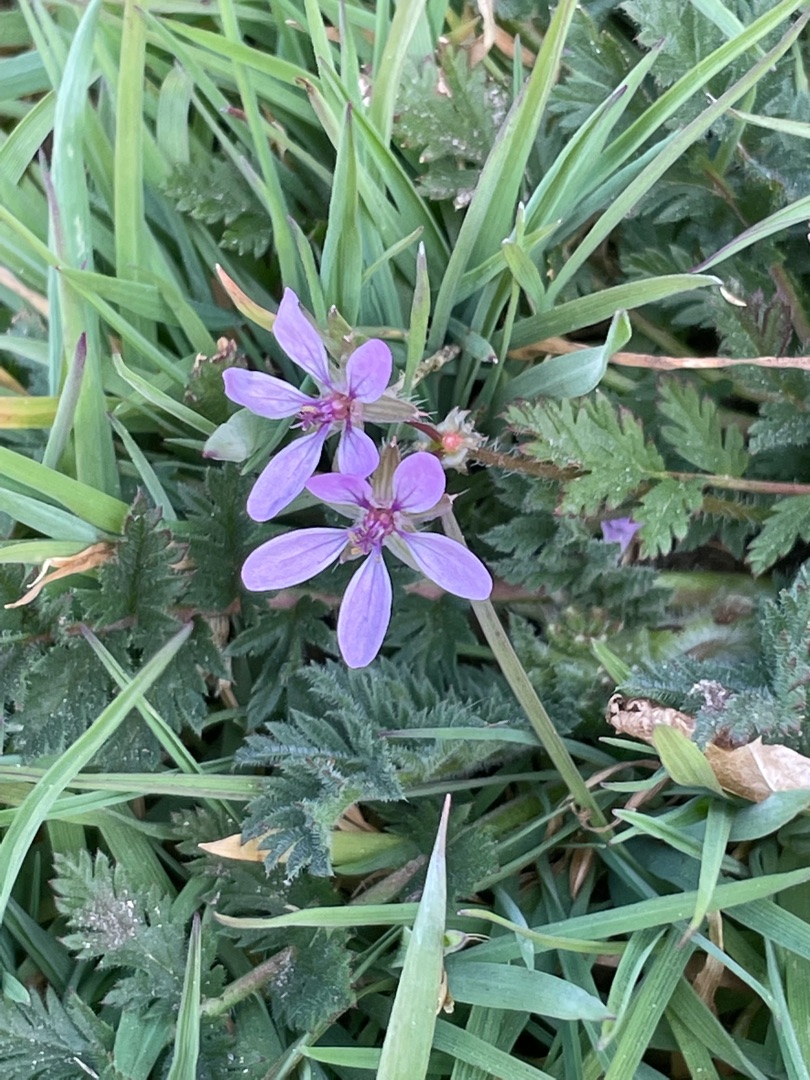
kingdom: Plantae
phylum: Tracheophyta
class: Magnoliopsida
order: Geraniales
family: Geraniaceae
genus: Erodium
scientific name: Erodium cicutarium
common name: Hejrenæb
